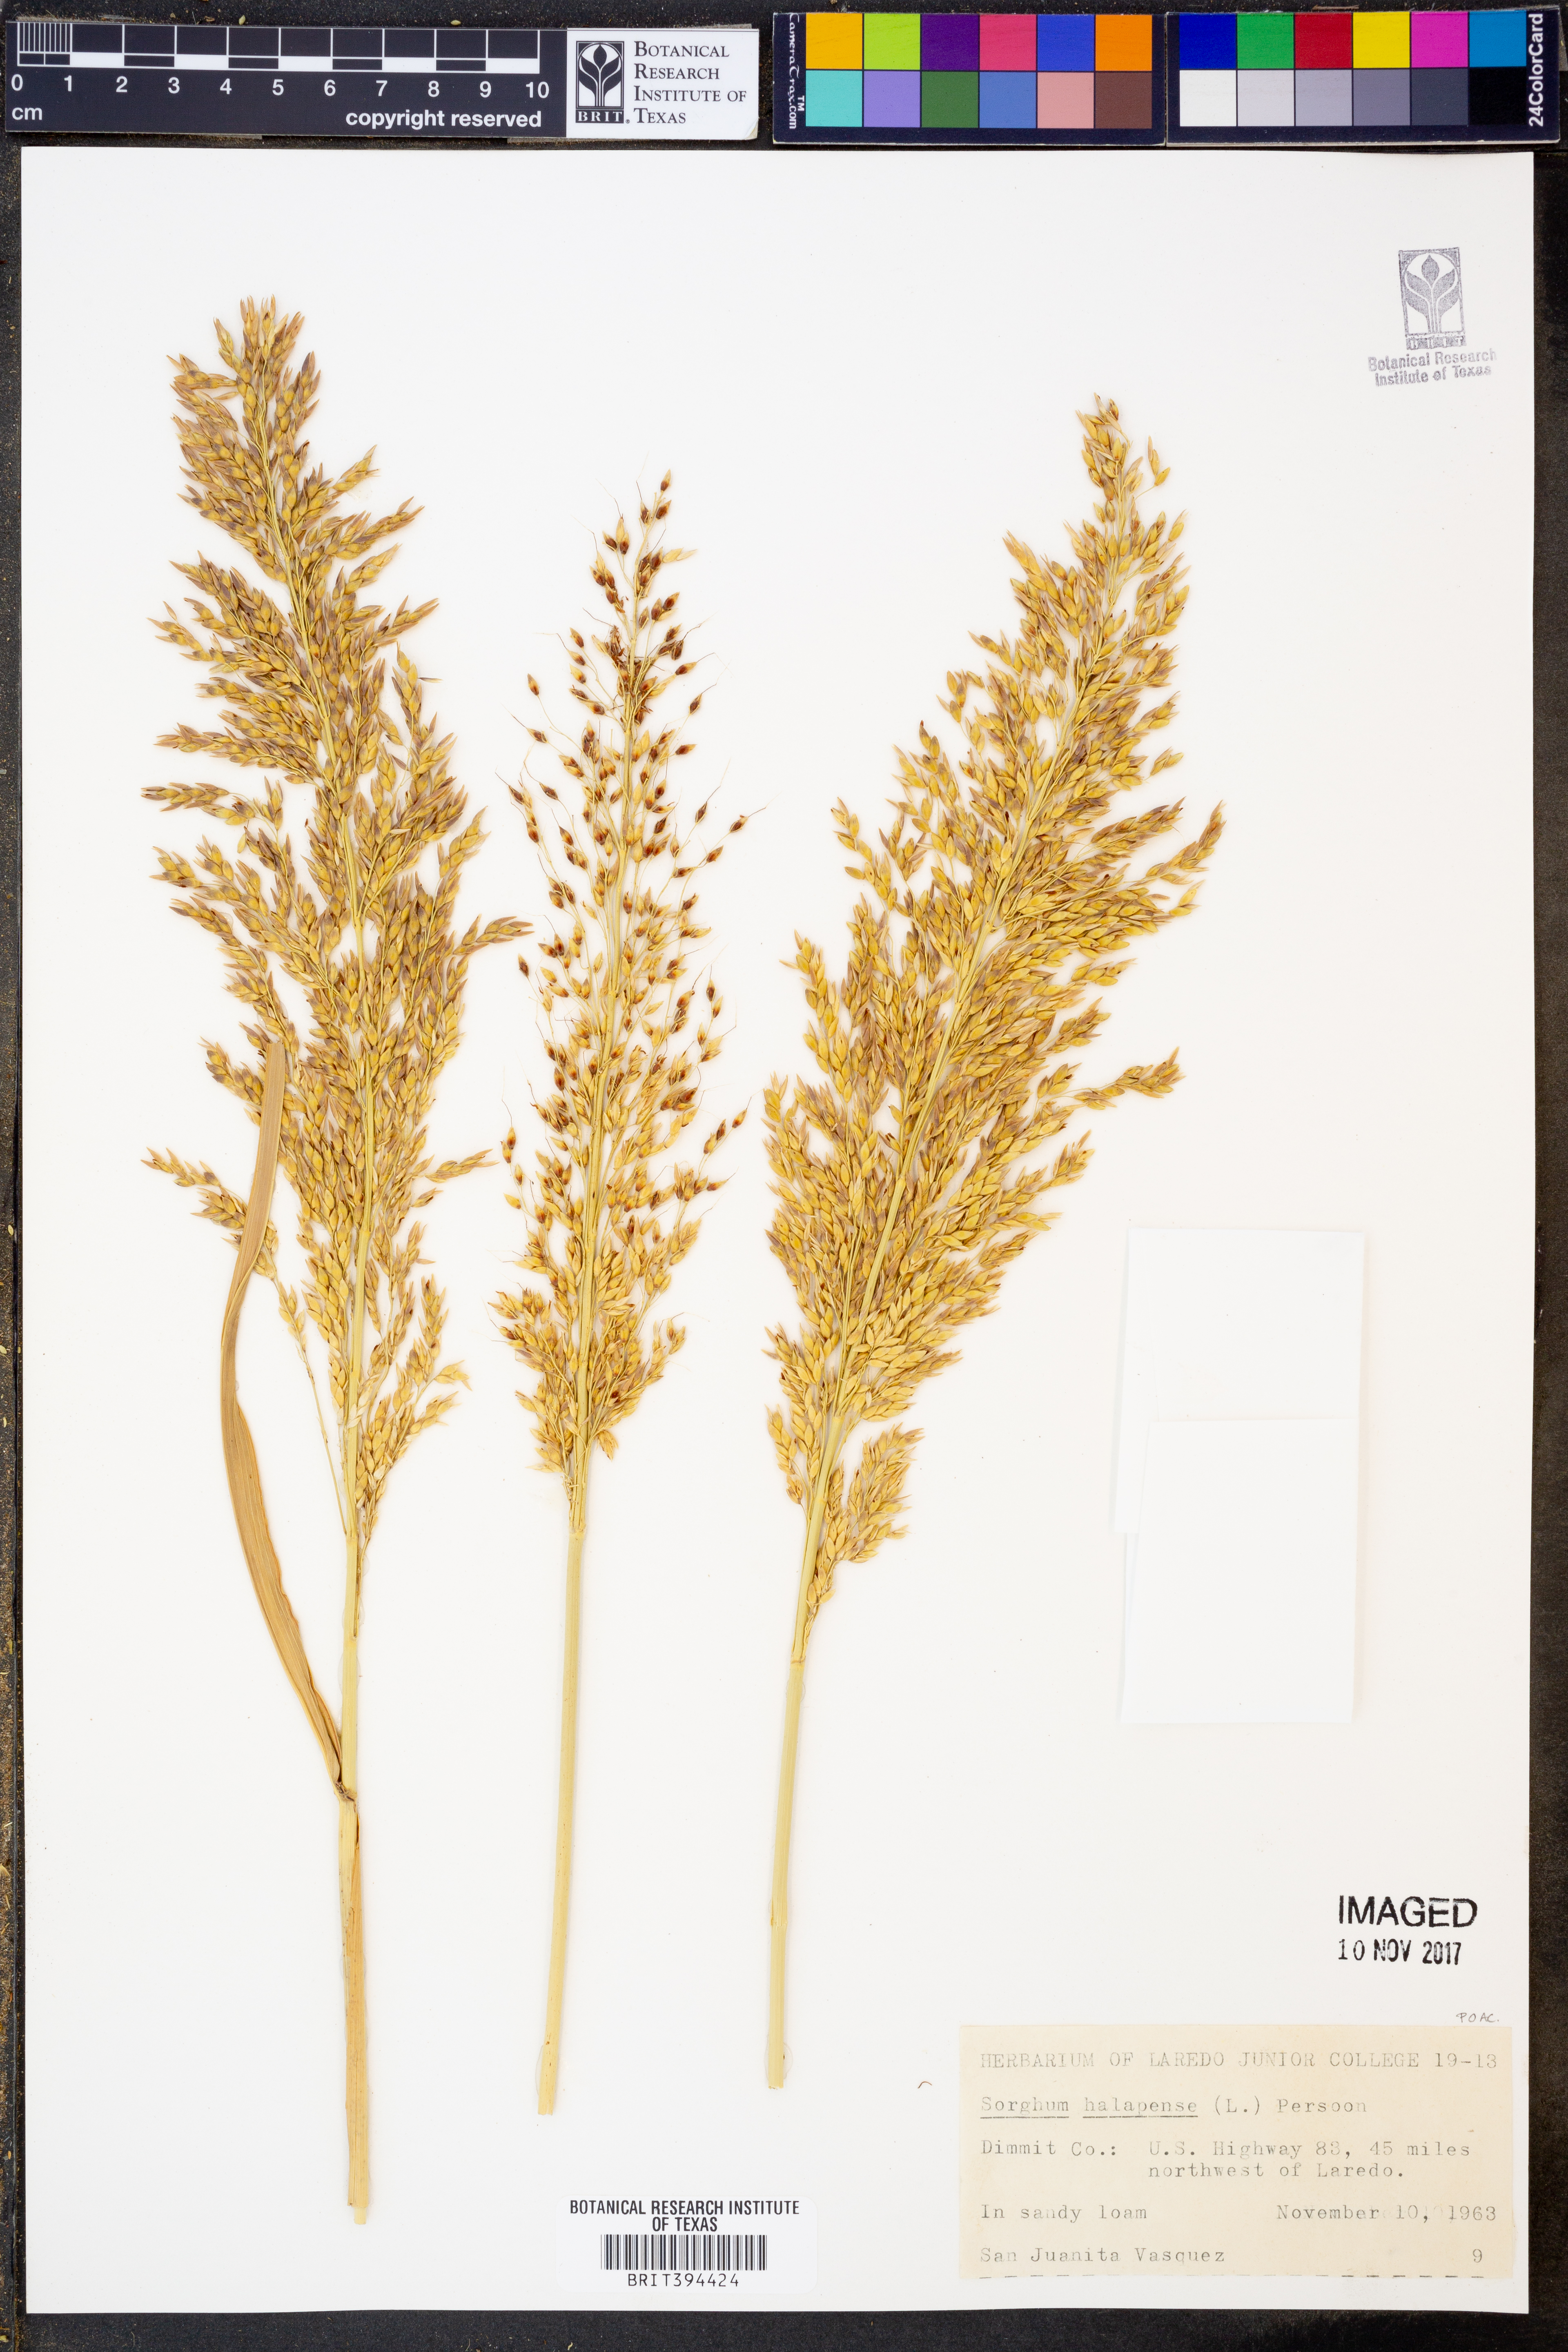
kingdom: Plantae
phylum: Tracheophyta
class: Liliopsida
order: Poales
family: Poaceae
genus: Sorghum
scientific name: Sorghum halepense
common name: Johnson-grass
